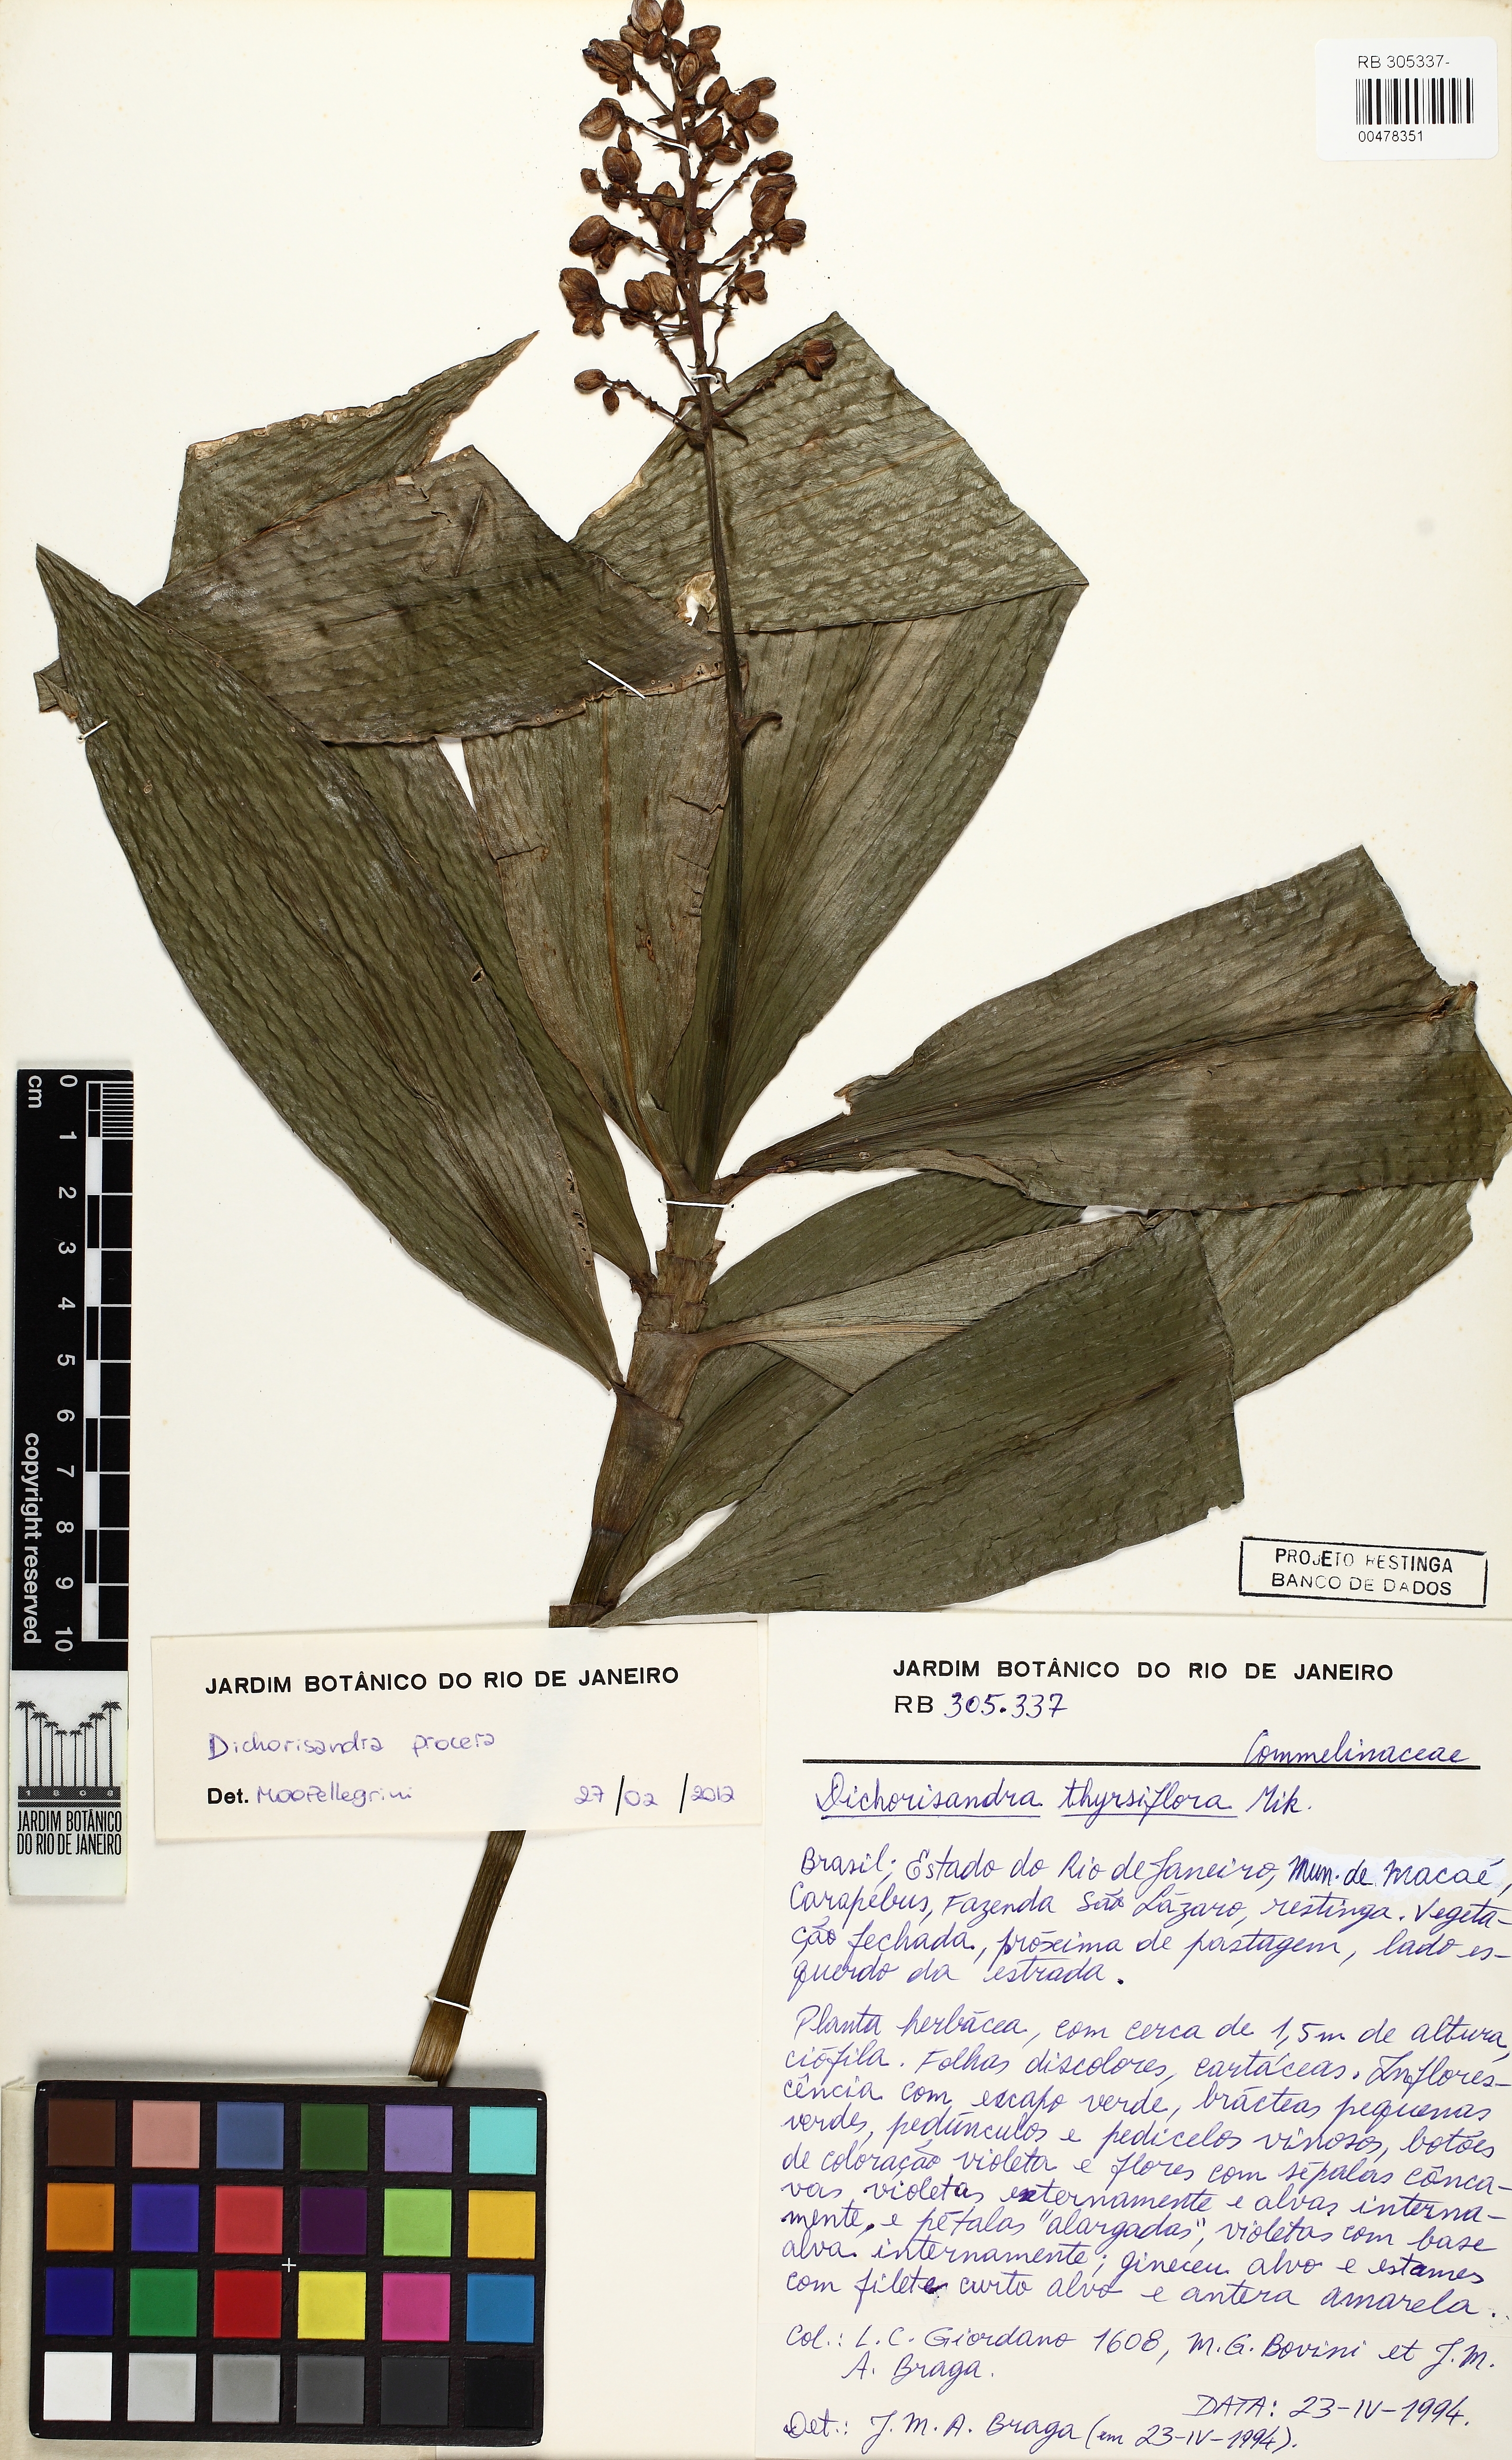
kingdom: Plantae
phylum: Tracheophyta
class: Liliopsida
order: Commelinales
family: Commelinaceae
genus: Dichorisandra
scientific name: Dichorisandra procera
